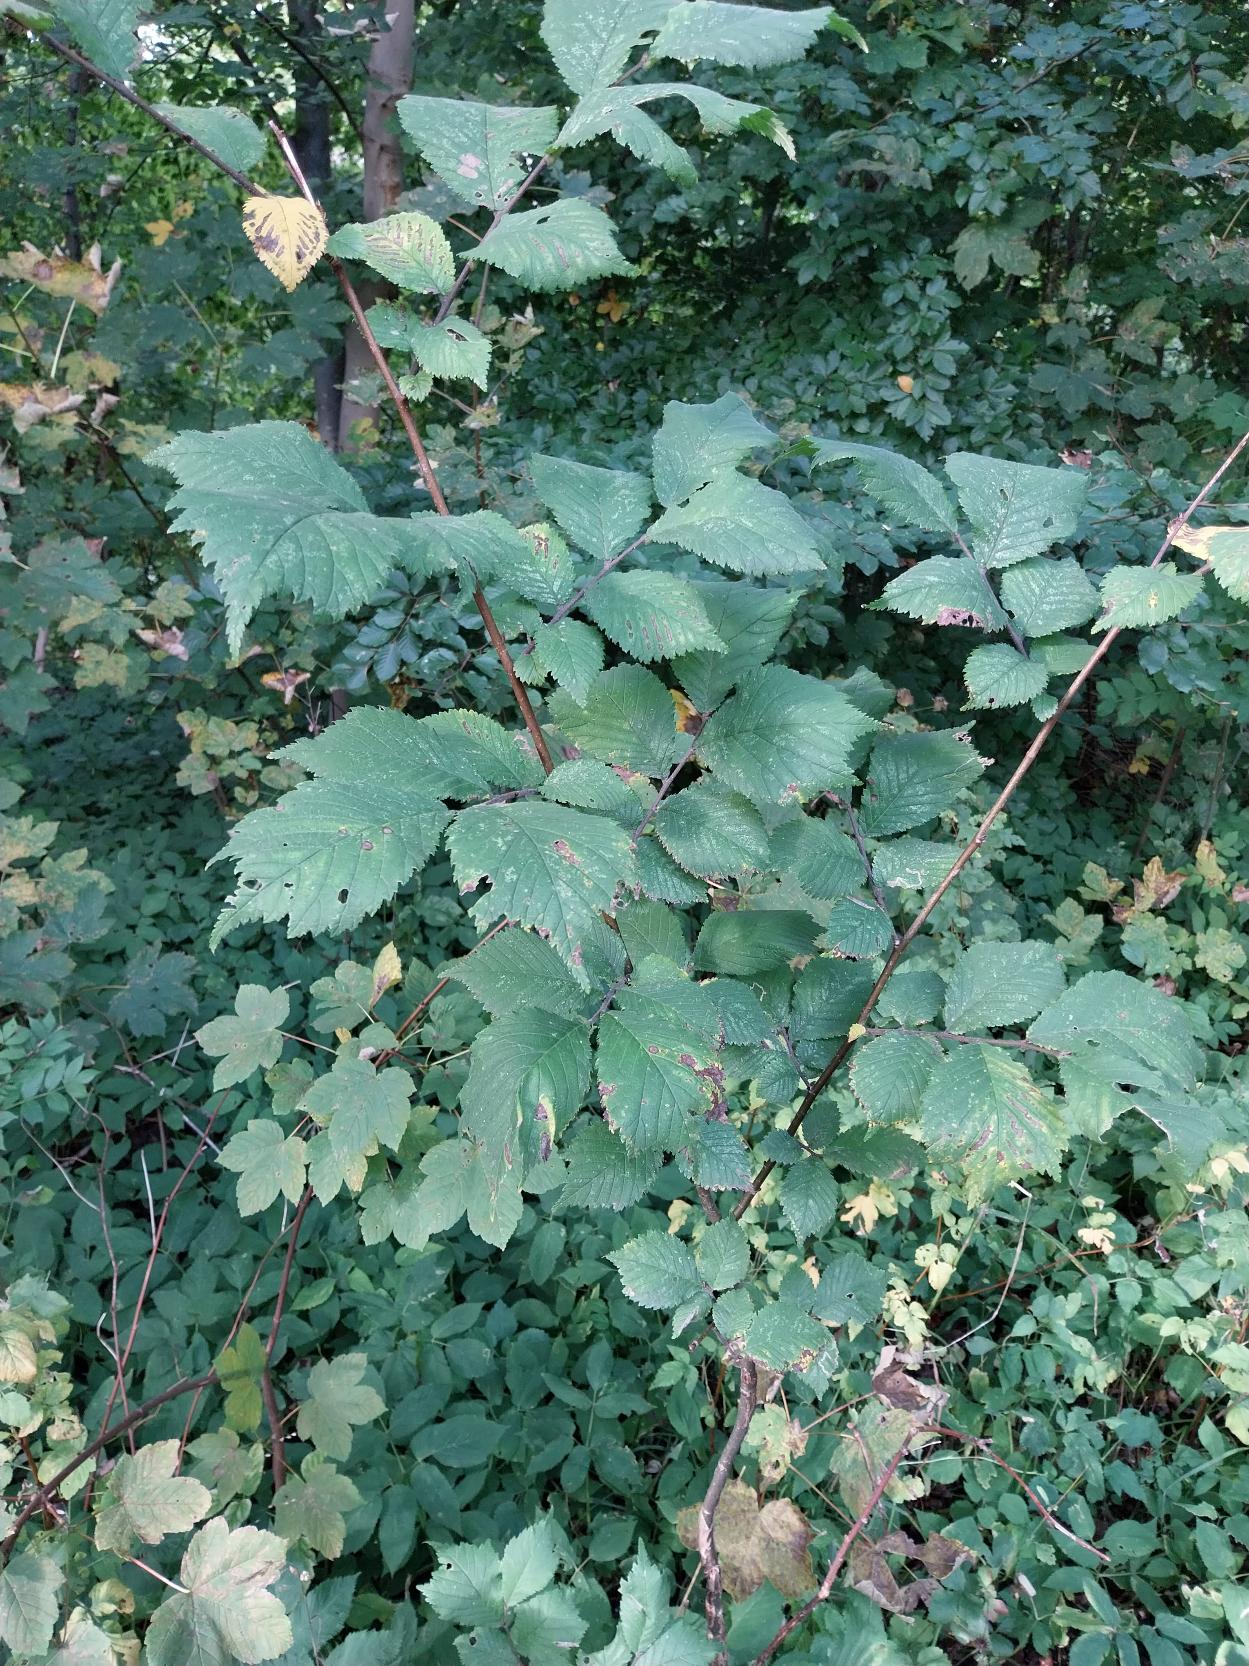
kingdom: Plantae
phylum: Tracheophyta
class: Magnoliopsida
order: Rosales
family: Ulmaceae
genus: Ulmus
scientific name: Ulmus glabra
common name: Skov-elm/storbladet elm
